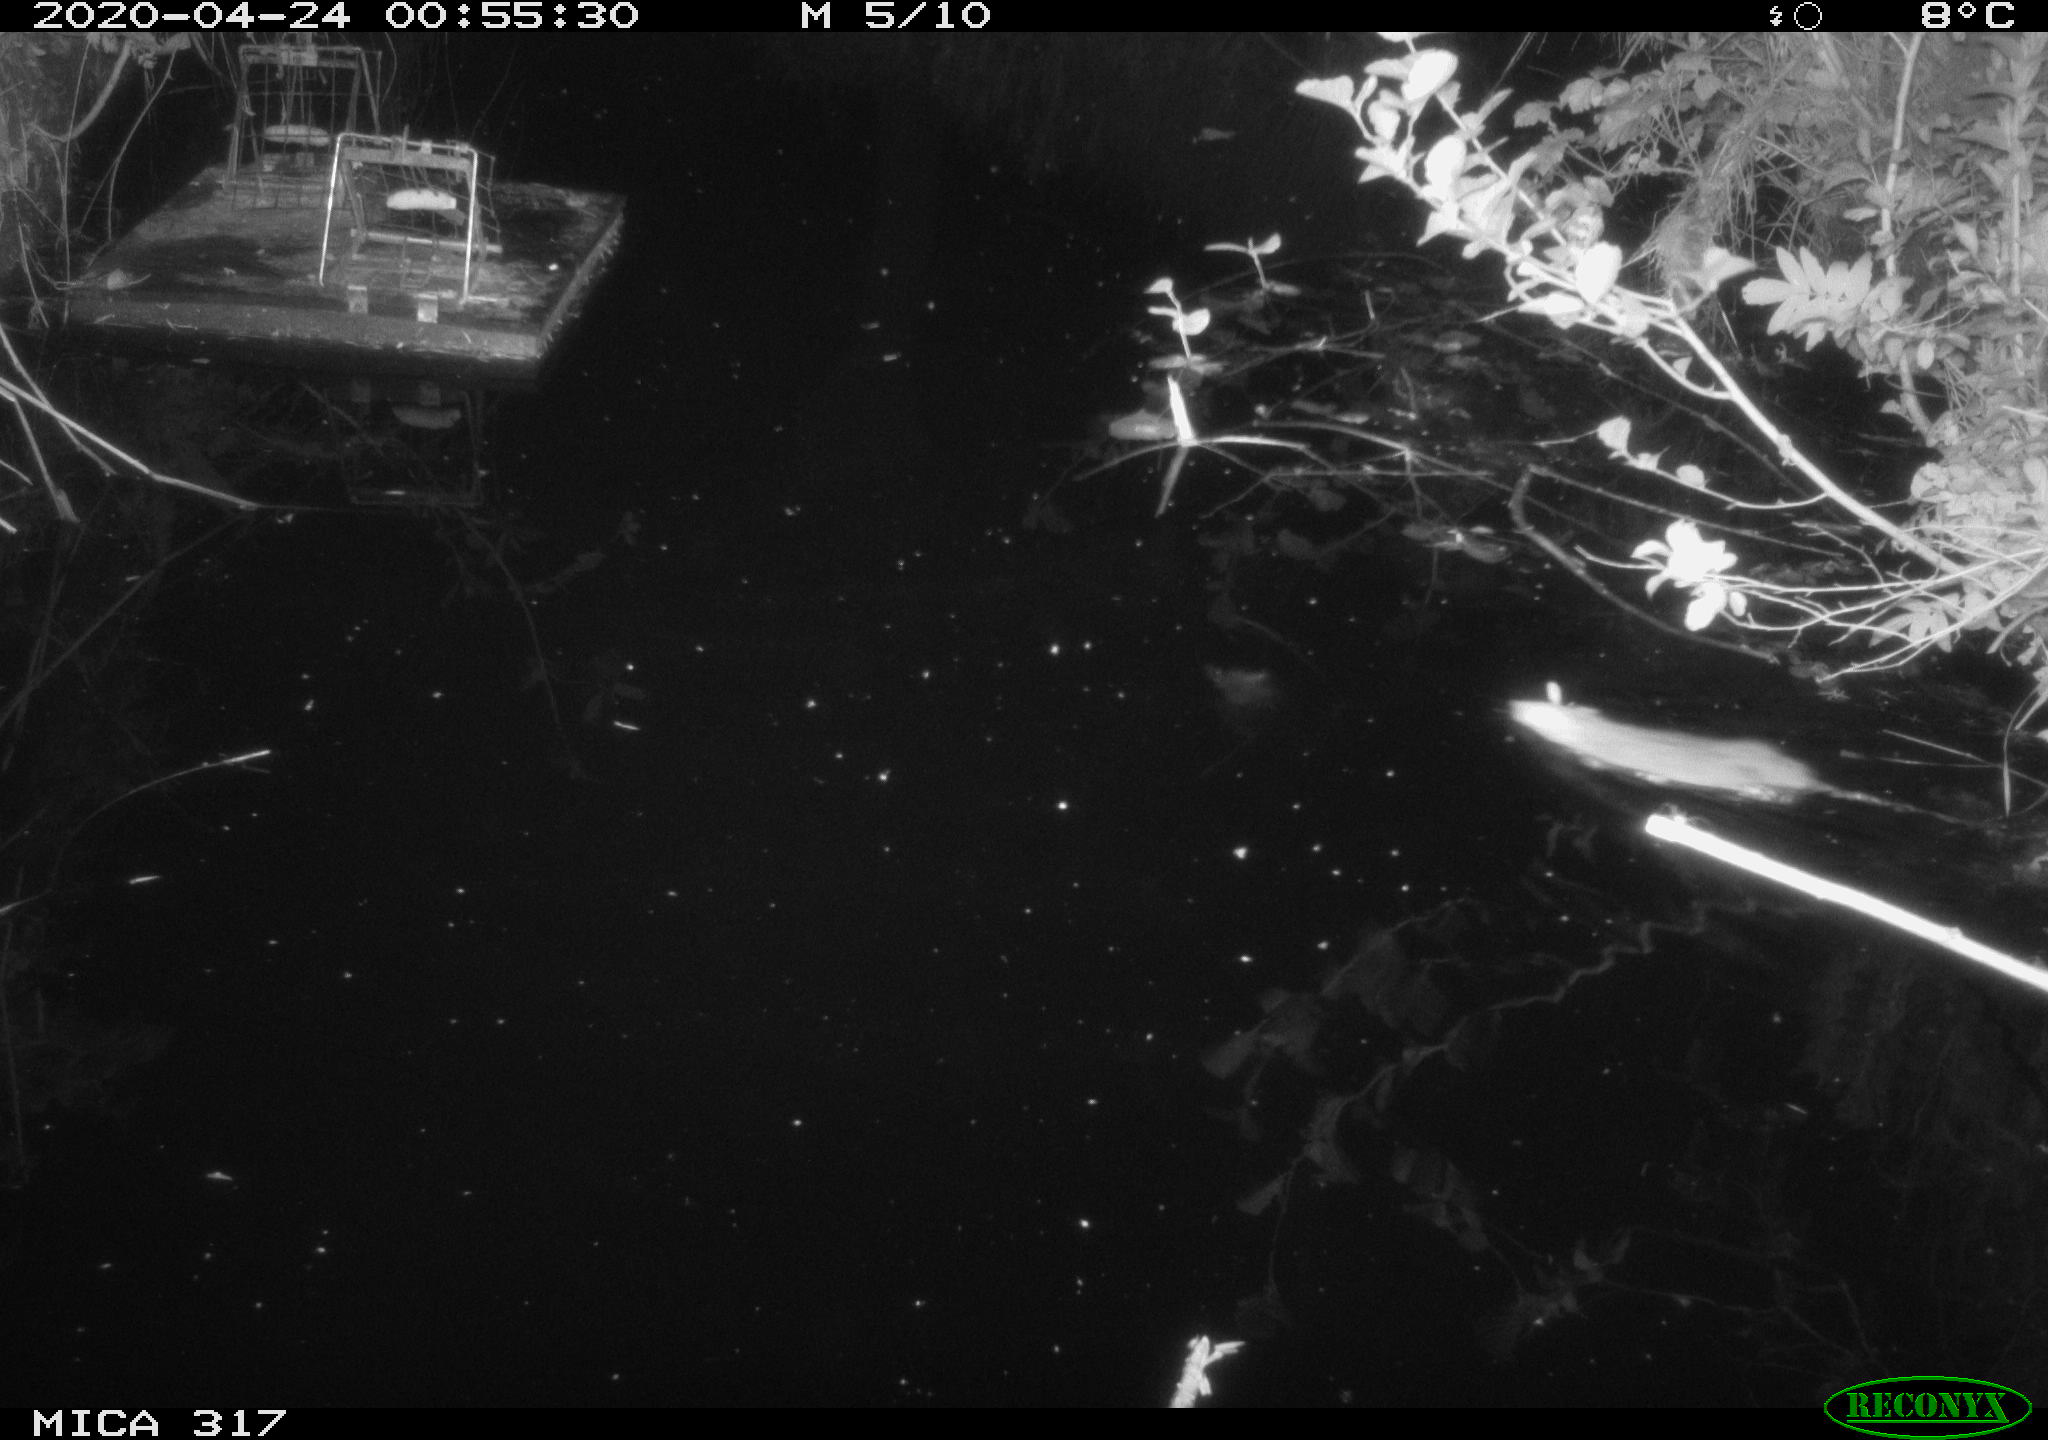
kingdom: Animalia
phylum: Chordata
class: Mammalia
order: Rodentia
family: Muridae
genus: Rattus
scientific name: Rattus norvegicus
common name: Brown rat
